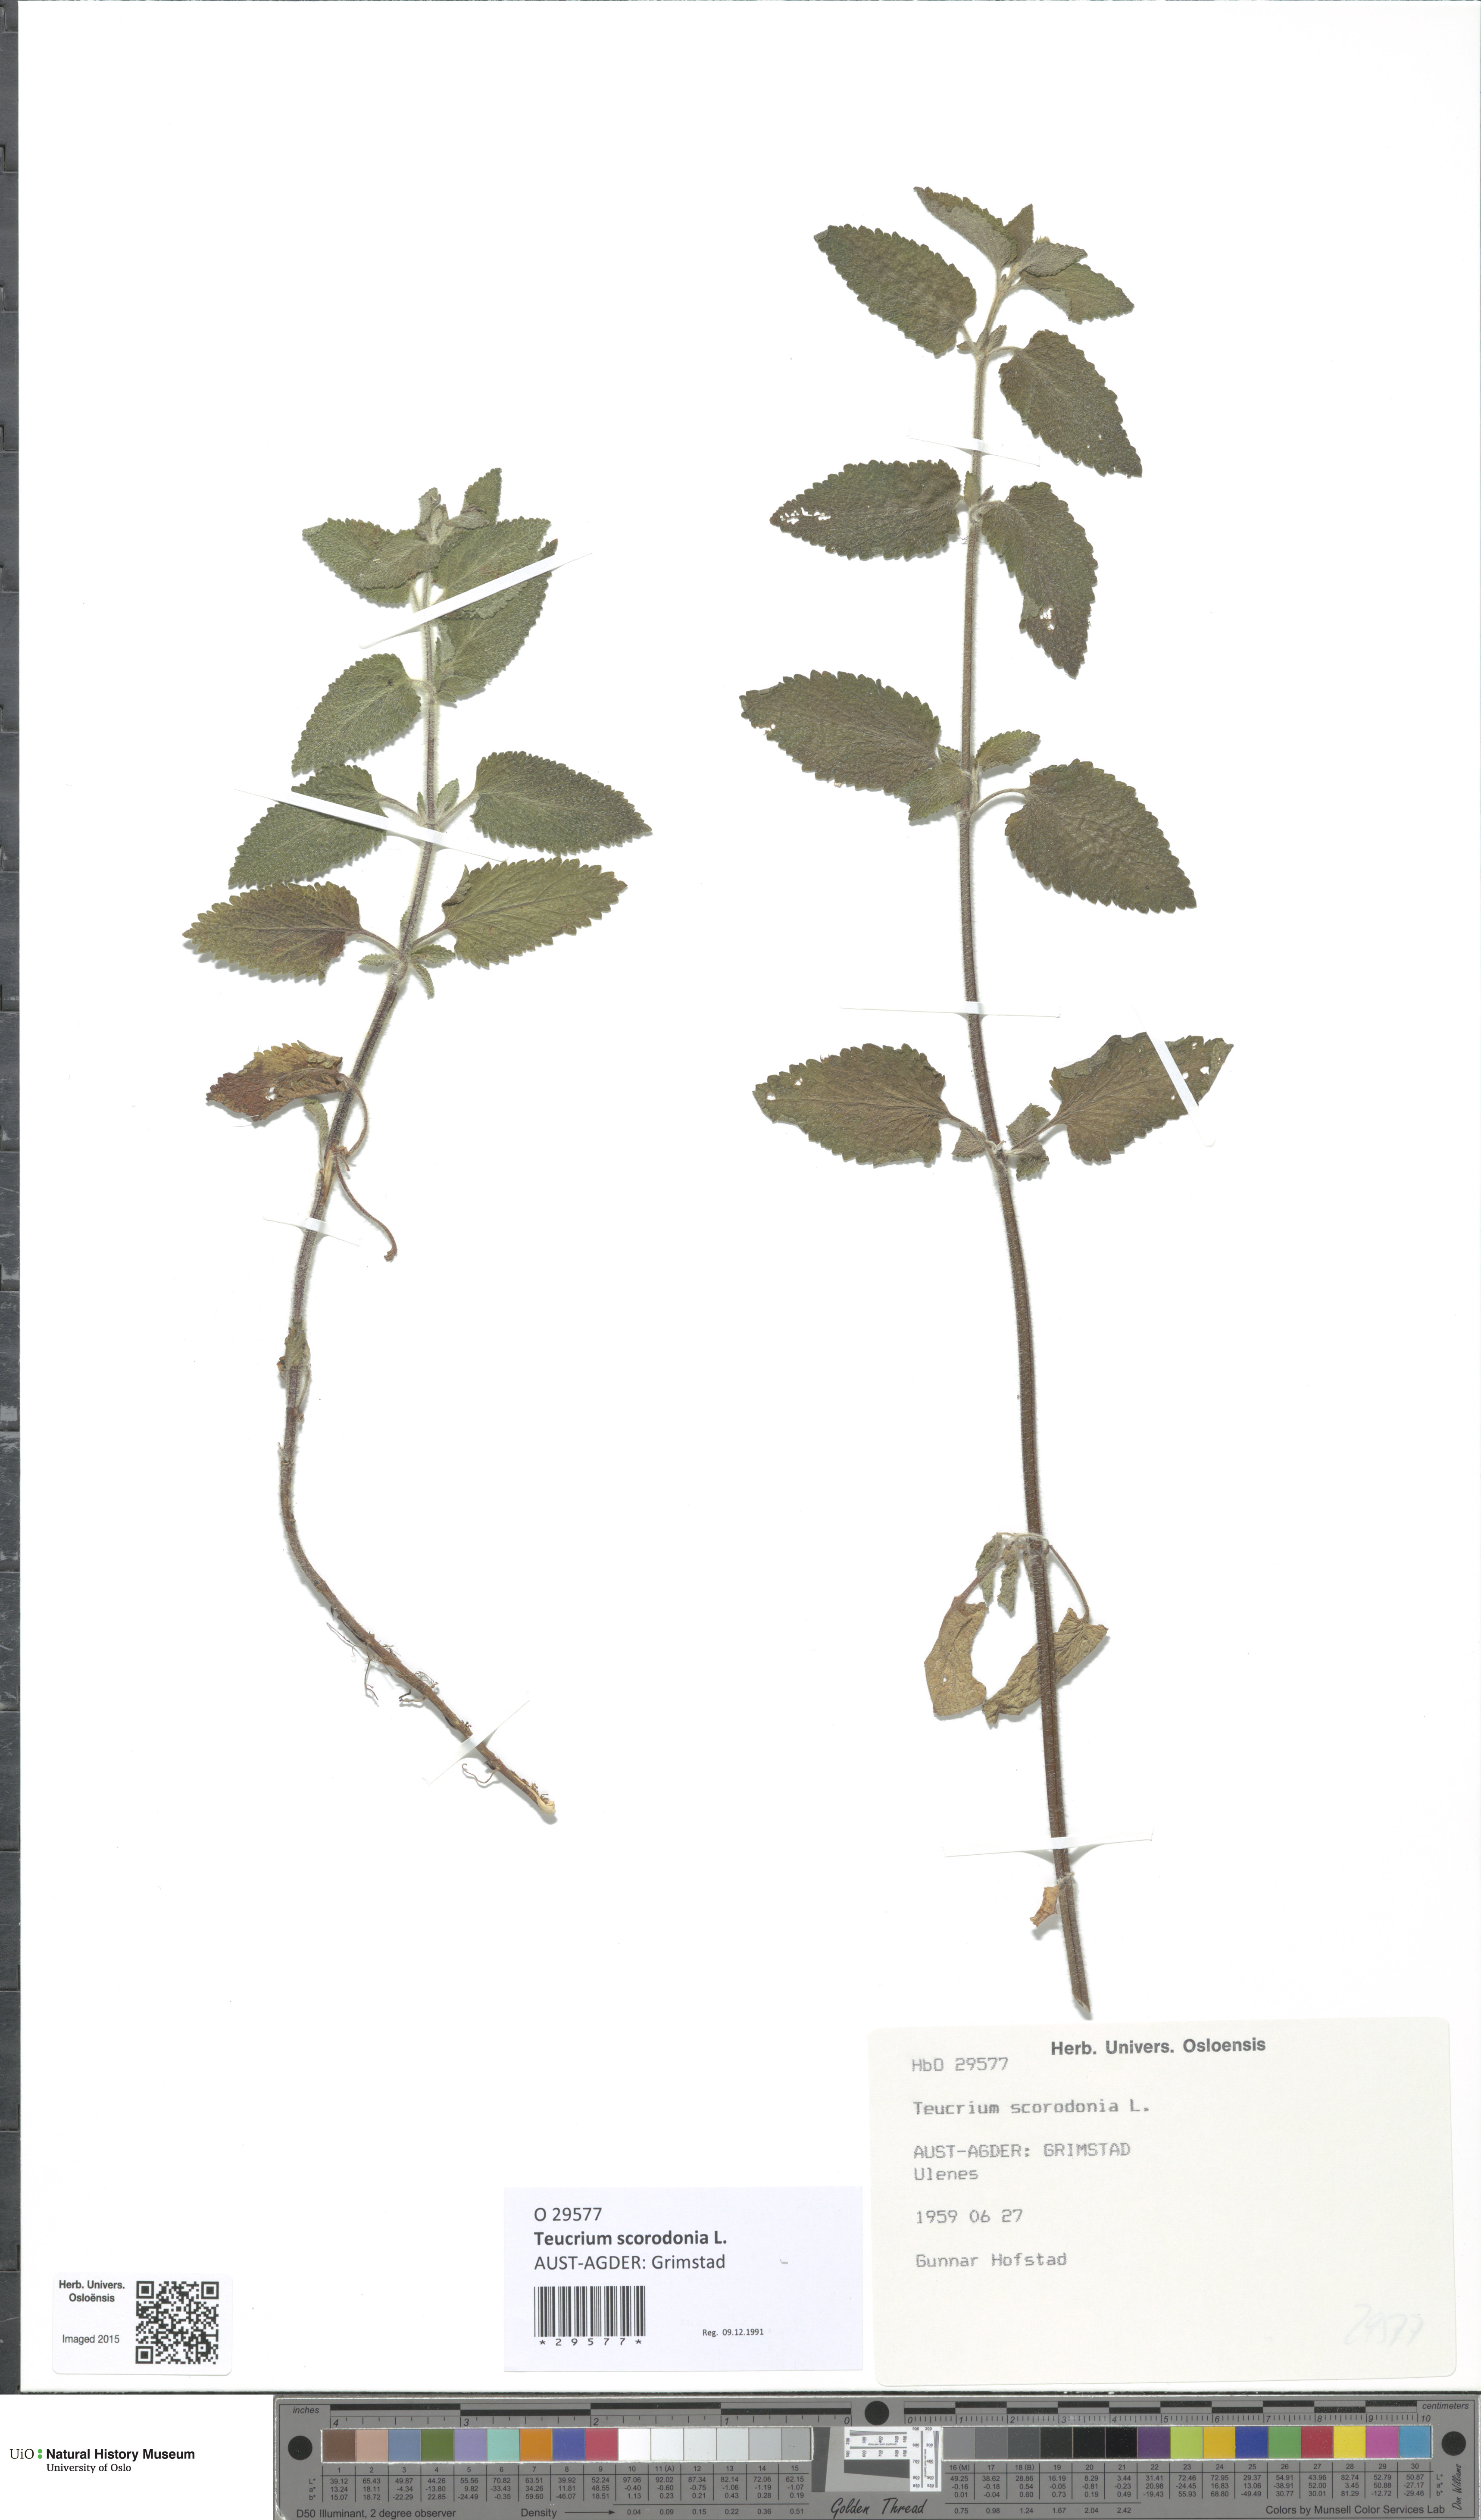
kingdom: Plantae
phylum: Tracheophyta
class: Magnoliopsida
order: Lamiales
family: Lamiaceae
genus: Teucrium
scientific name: Teucrium scorodonia
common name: Woodland germander
